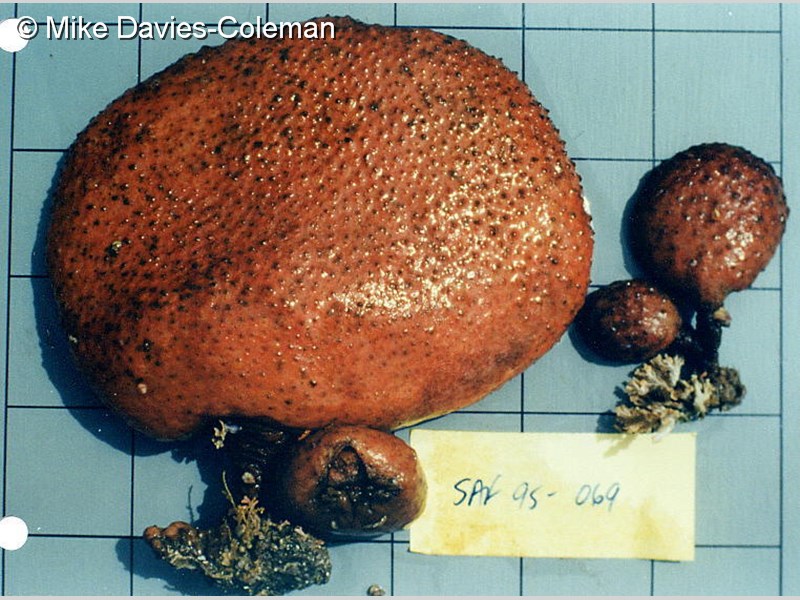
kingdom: Animalia
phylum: Chordata
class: Ascidiacea
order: Stolidobranchia
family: Styelidae
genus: Gynandrocarpa
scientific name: Gynandrocarpa placenta
